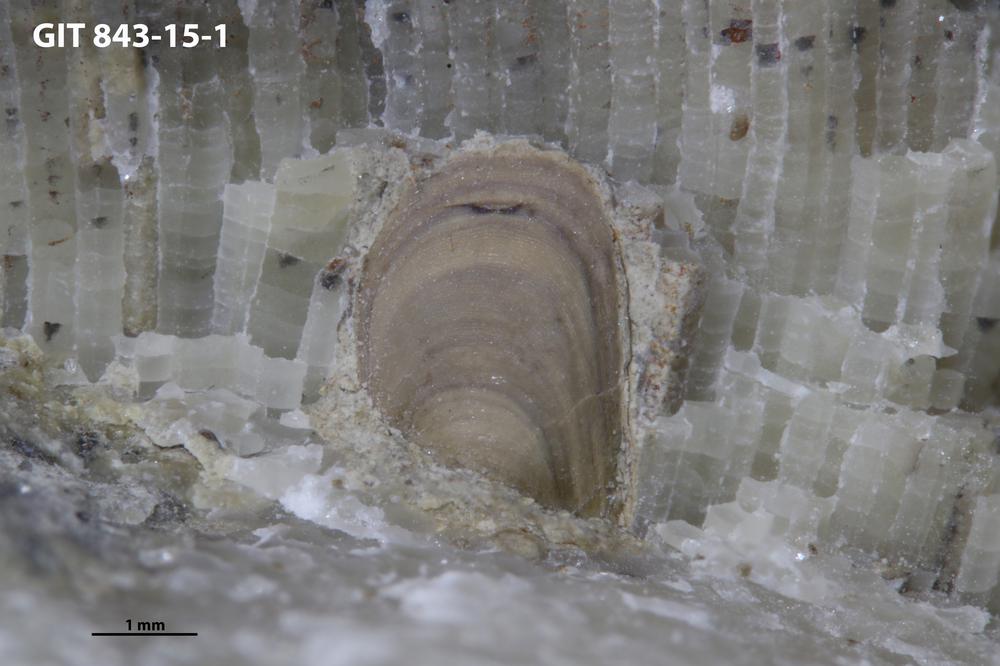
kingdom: Animalia
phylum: Bryozoa
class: Stenolaemata
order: Trepostomatida
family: Diplotrypidae
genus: Diplotrypa
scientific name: Diplotrypa densitabulata
